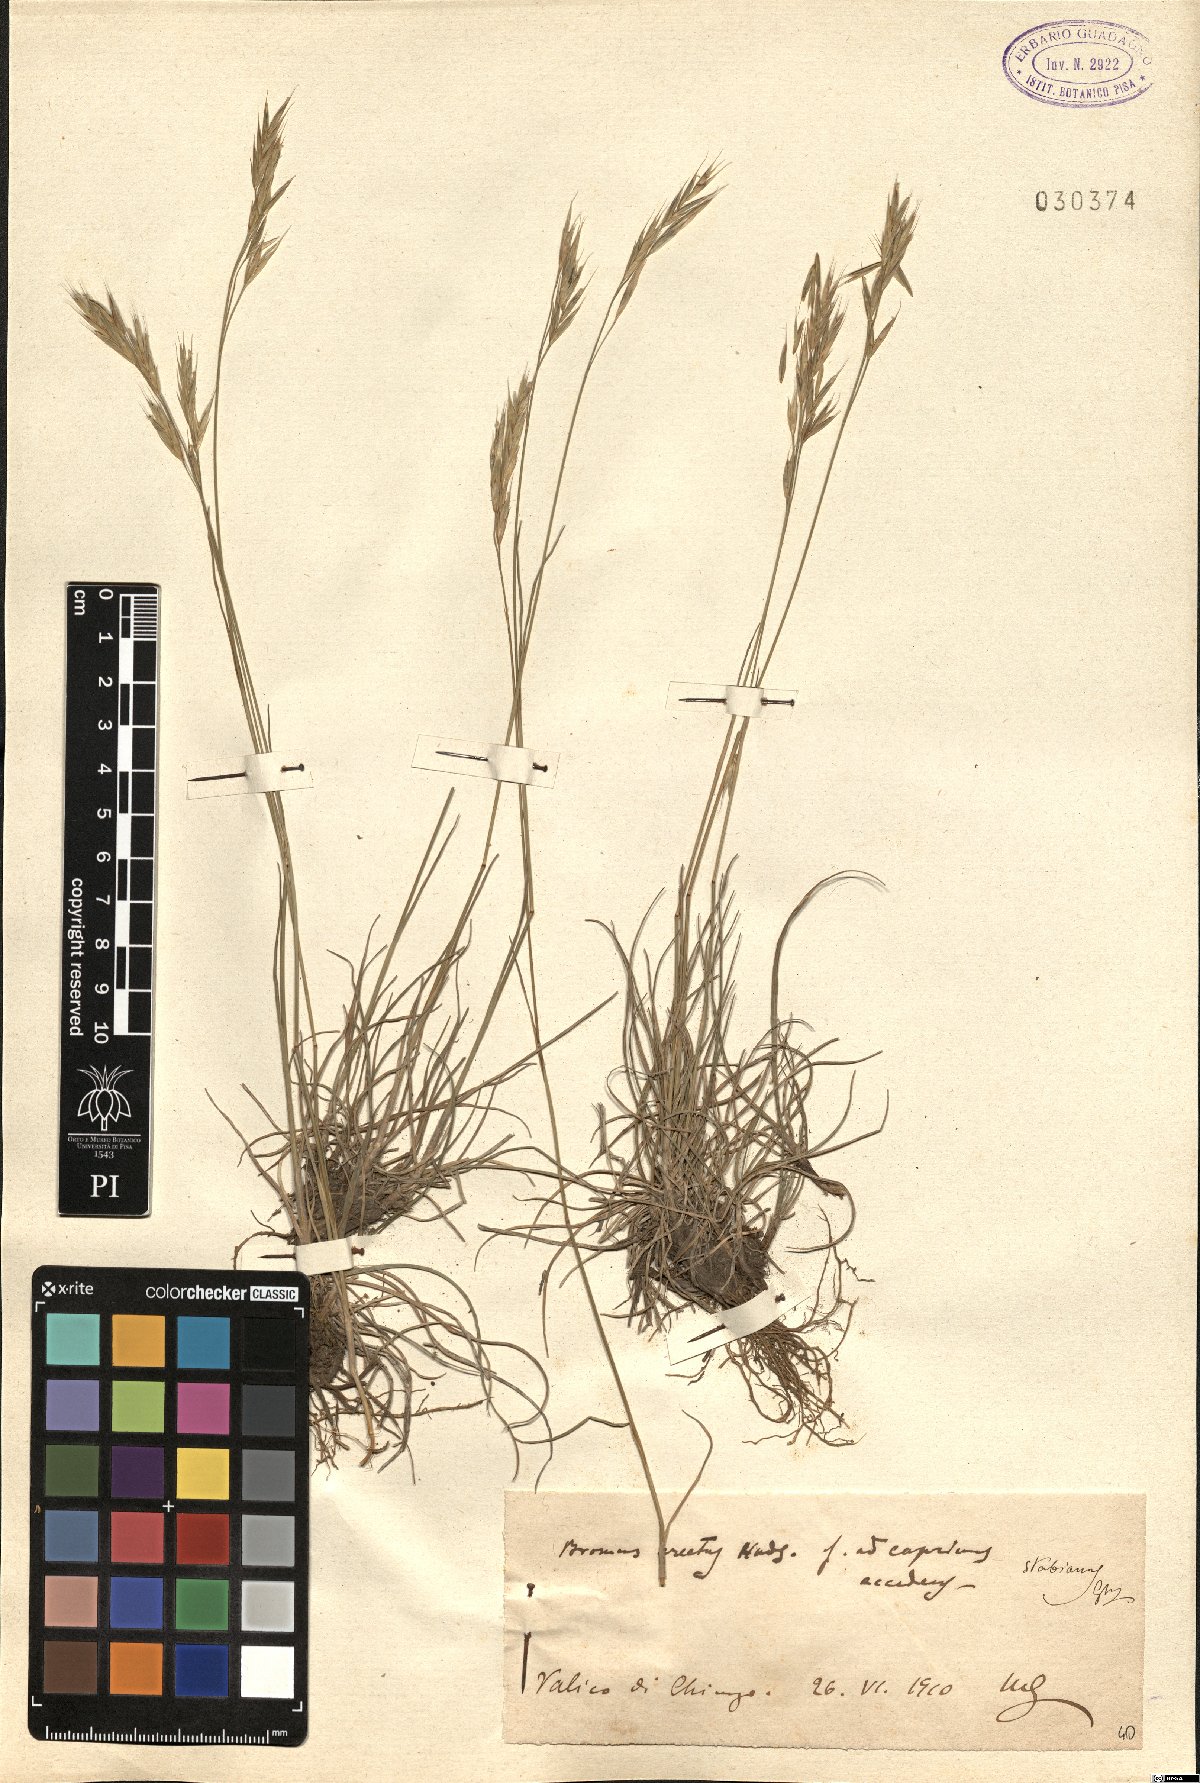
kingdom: Plantae
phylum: Tracheophyta
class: Liliopsida
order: Poales
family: Poaceae
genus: Bromus
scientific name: Bromus erectus
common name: Erect brome
